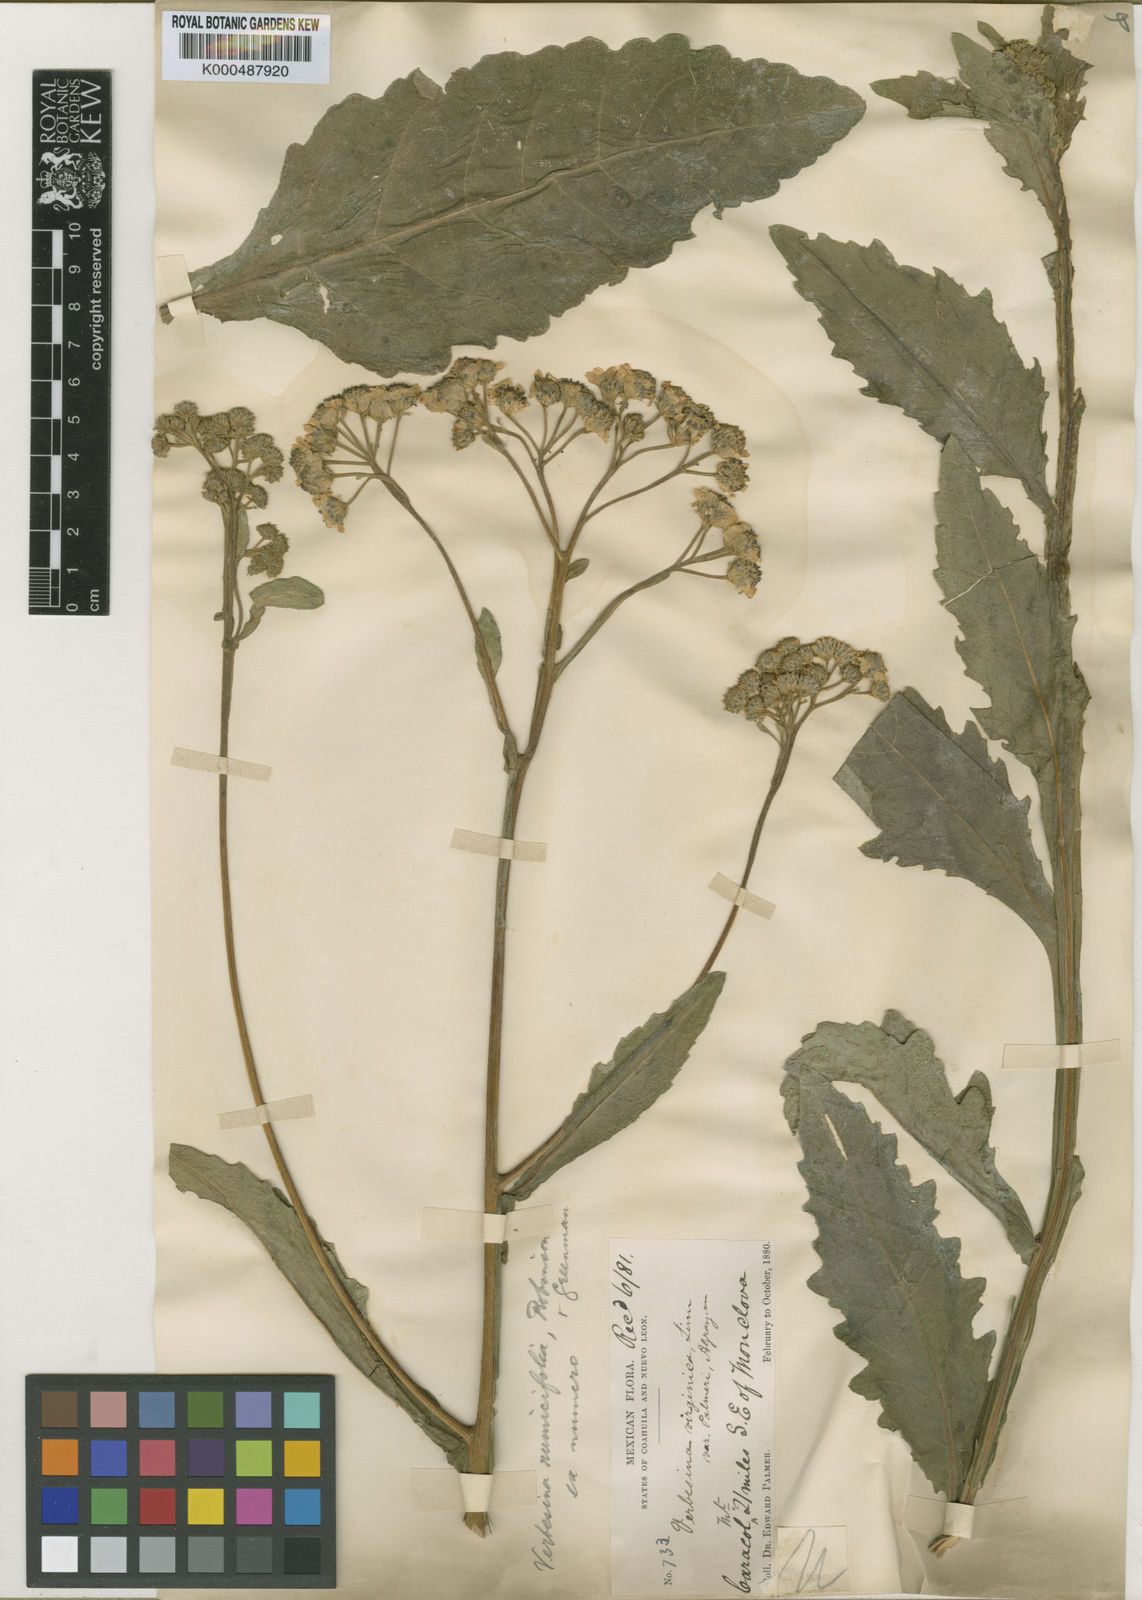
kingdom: Plantae
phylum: Tracheophyta
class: Magnoliopsida
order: Asterales
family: Asteraceae
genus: Verbesina
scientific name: Verbesina microptera
